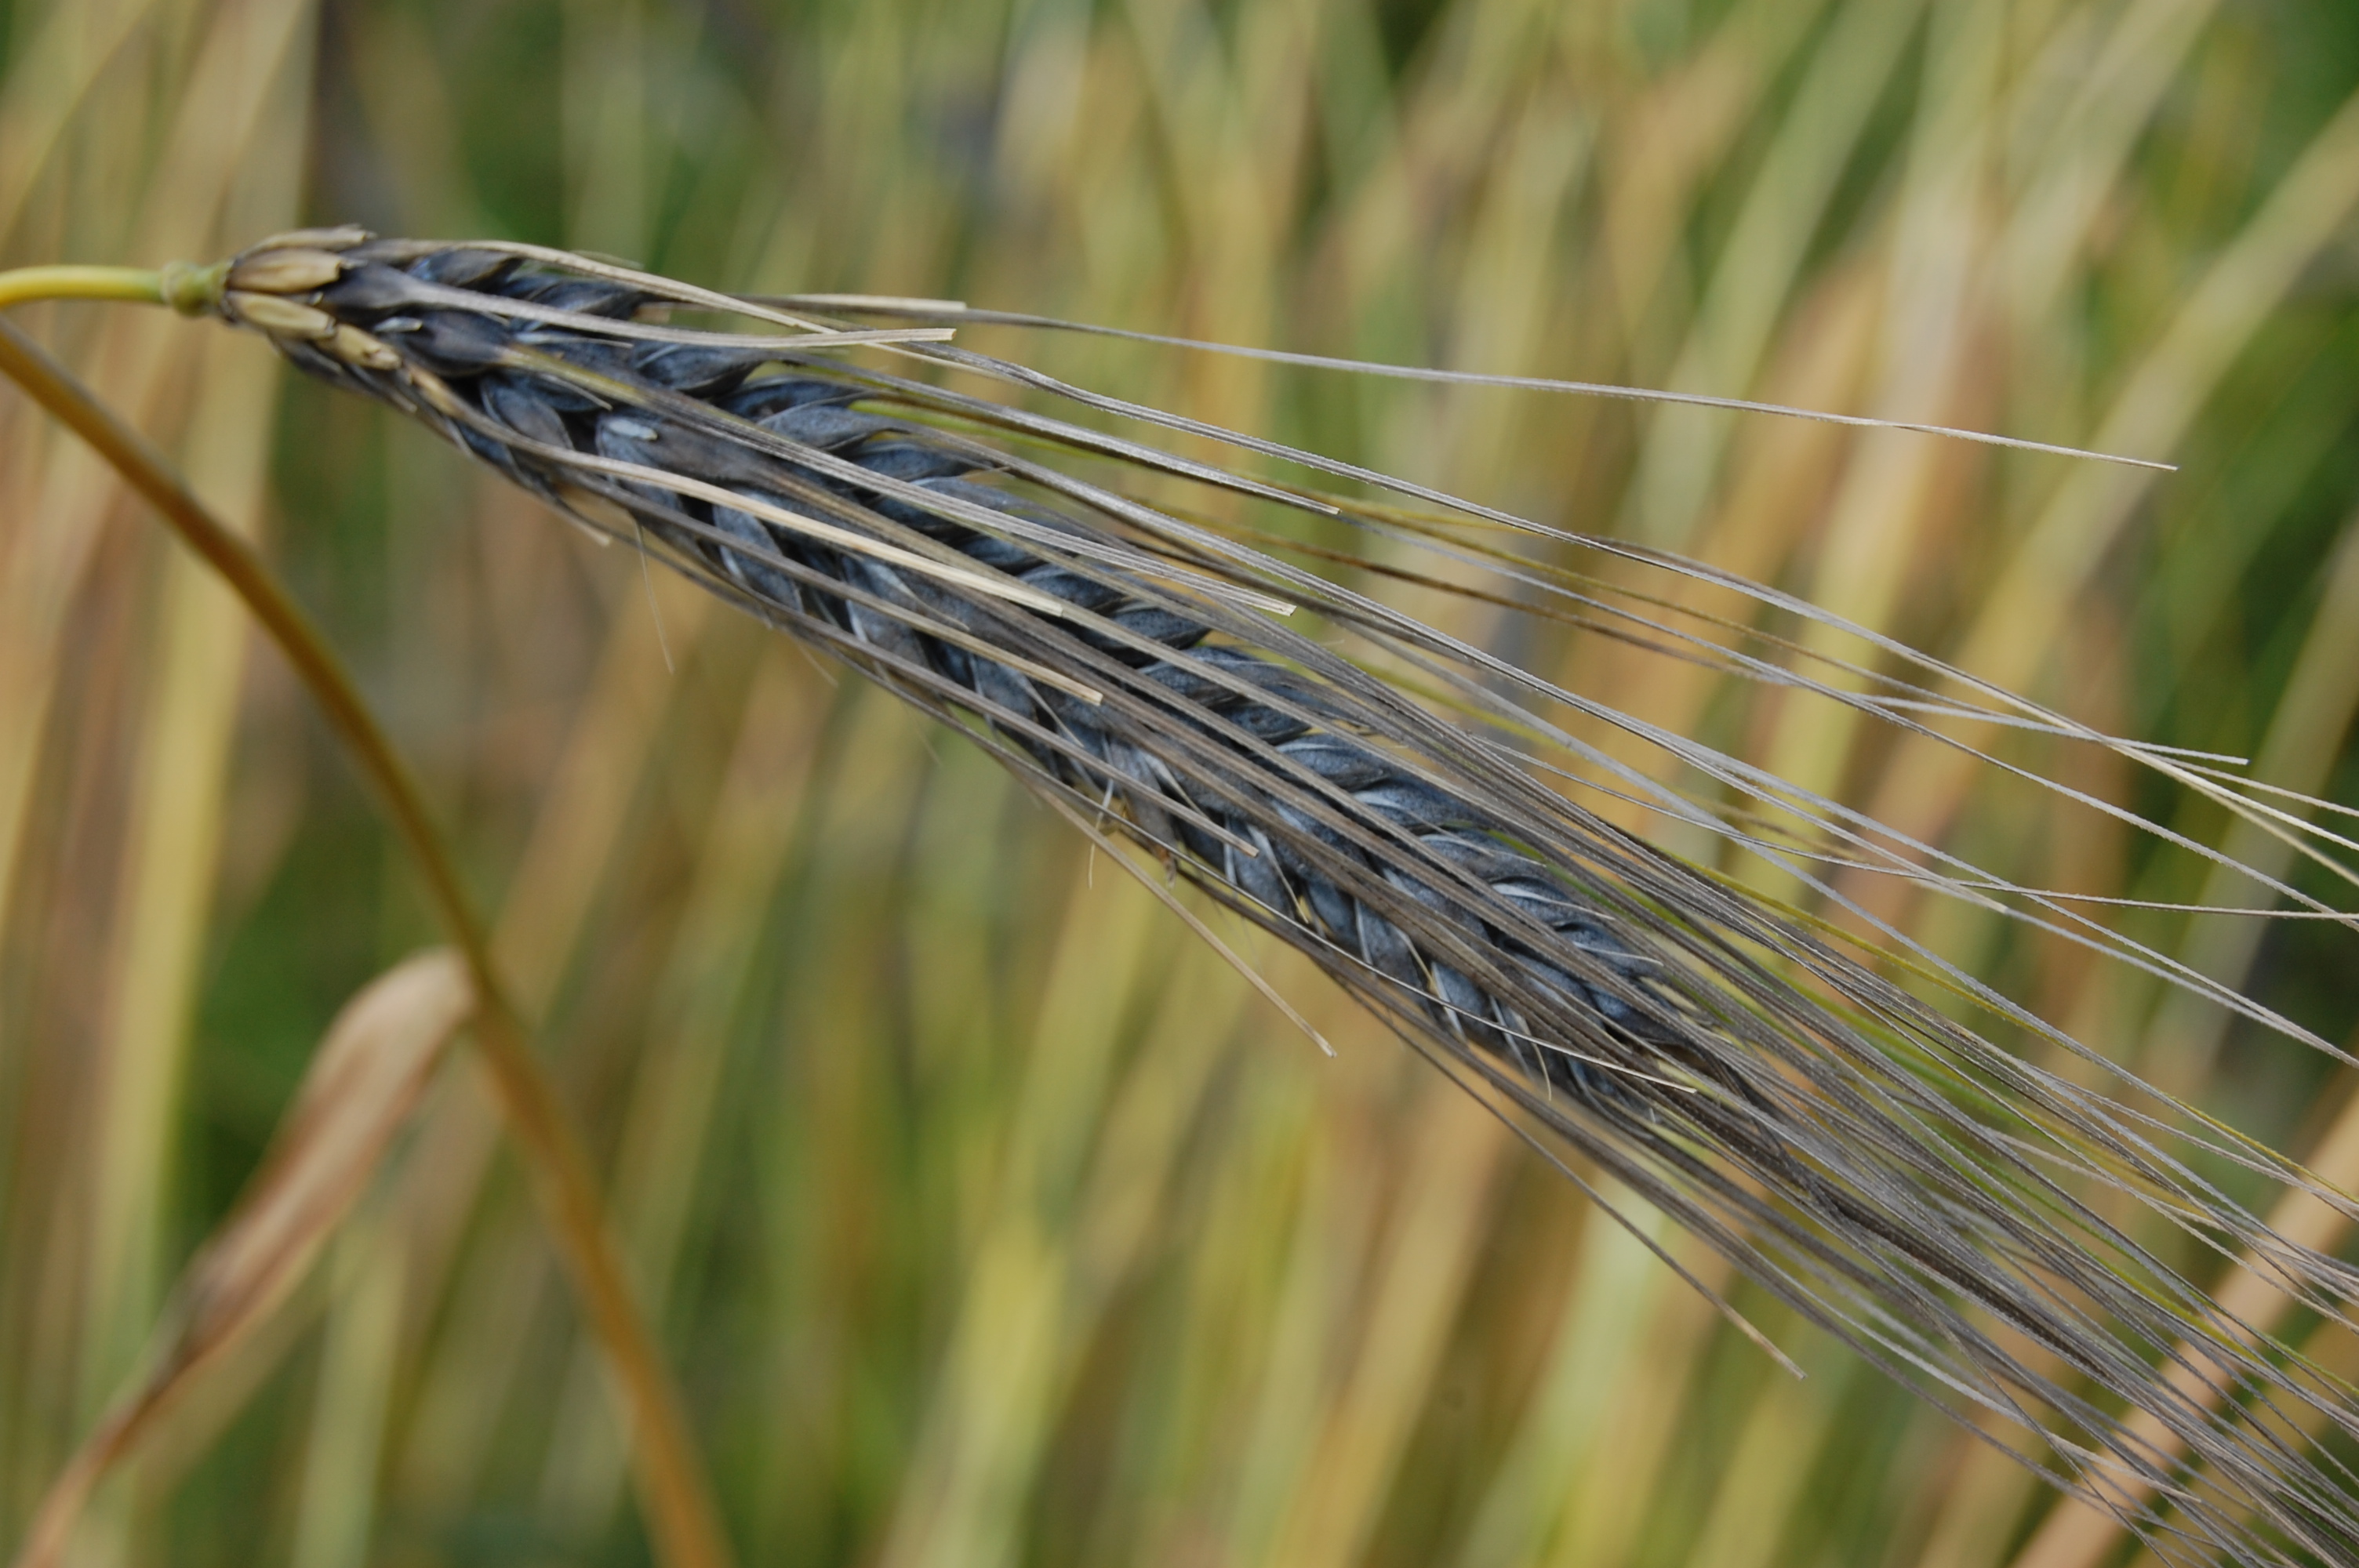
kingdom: Plantae
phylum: Tracheophyta
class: Liliopsida
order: Poales
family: Poaceae
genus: Hordeum
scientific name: Hordeum vulgare
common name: Common barley
